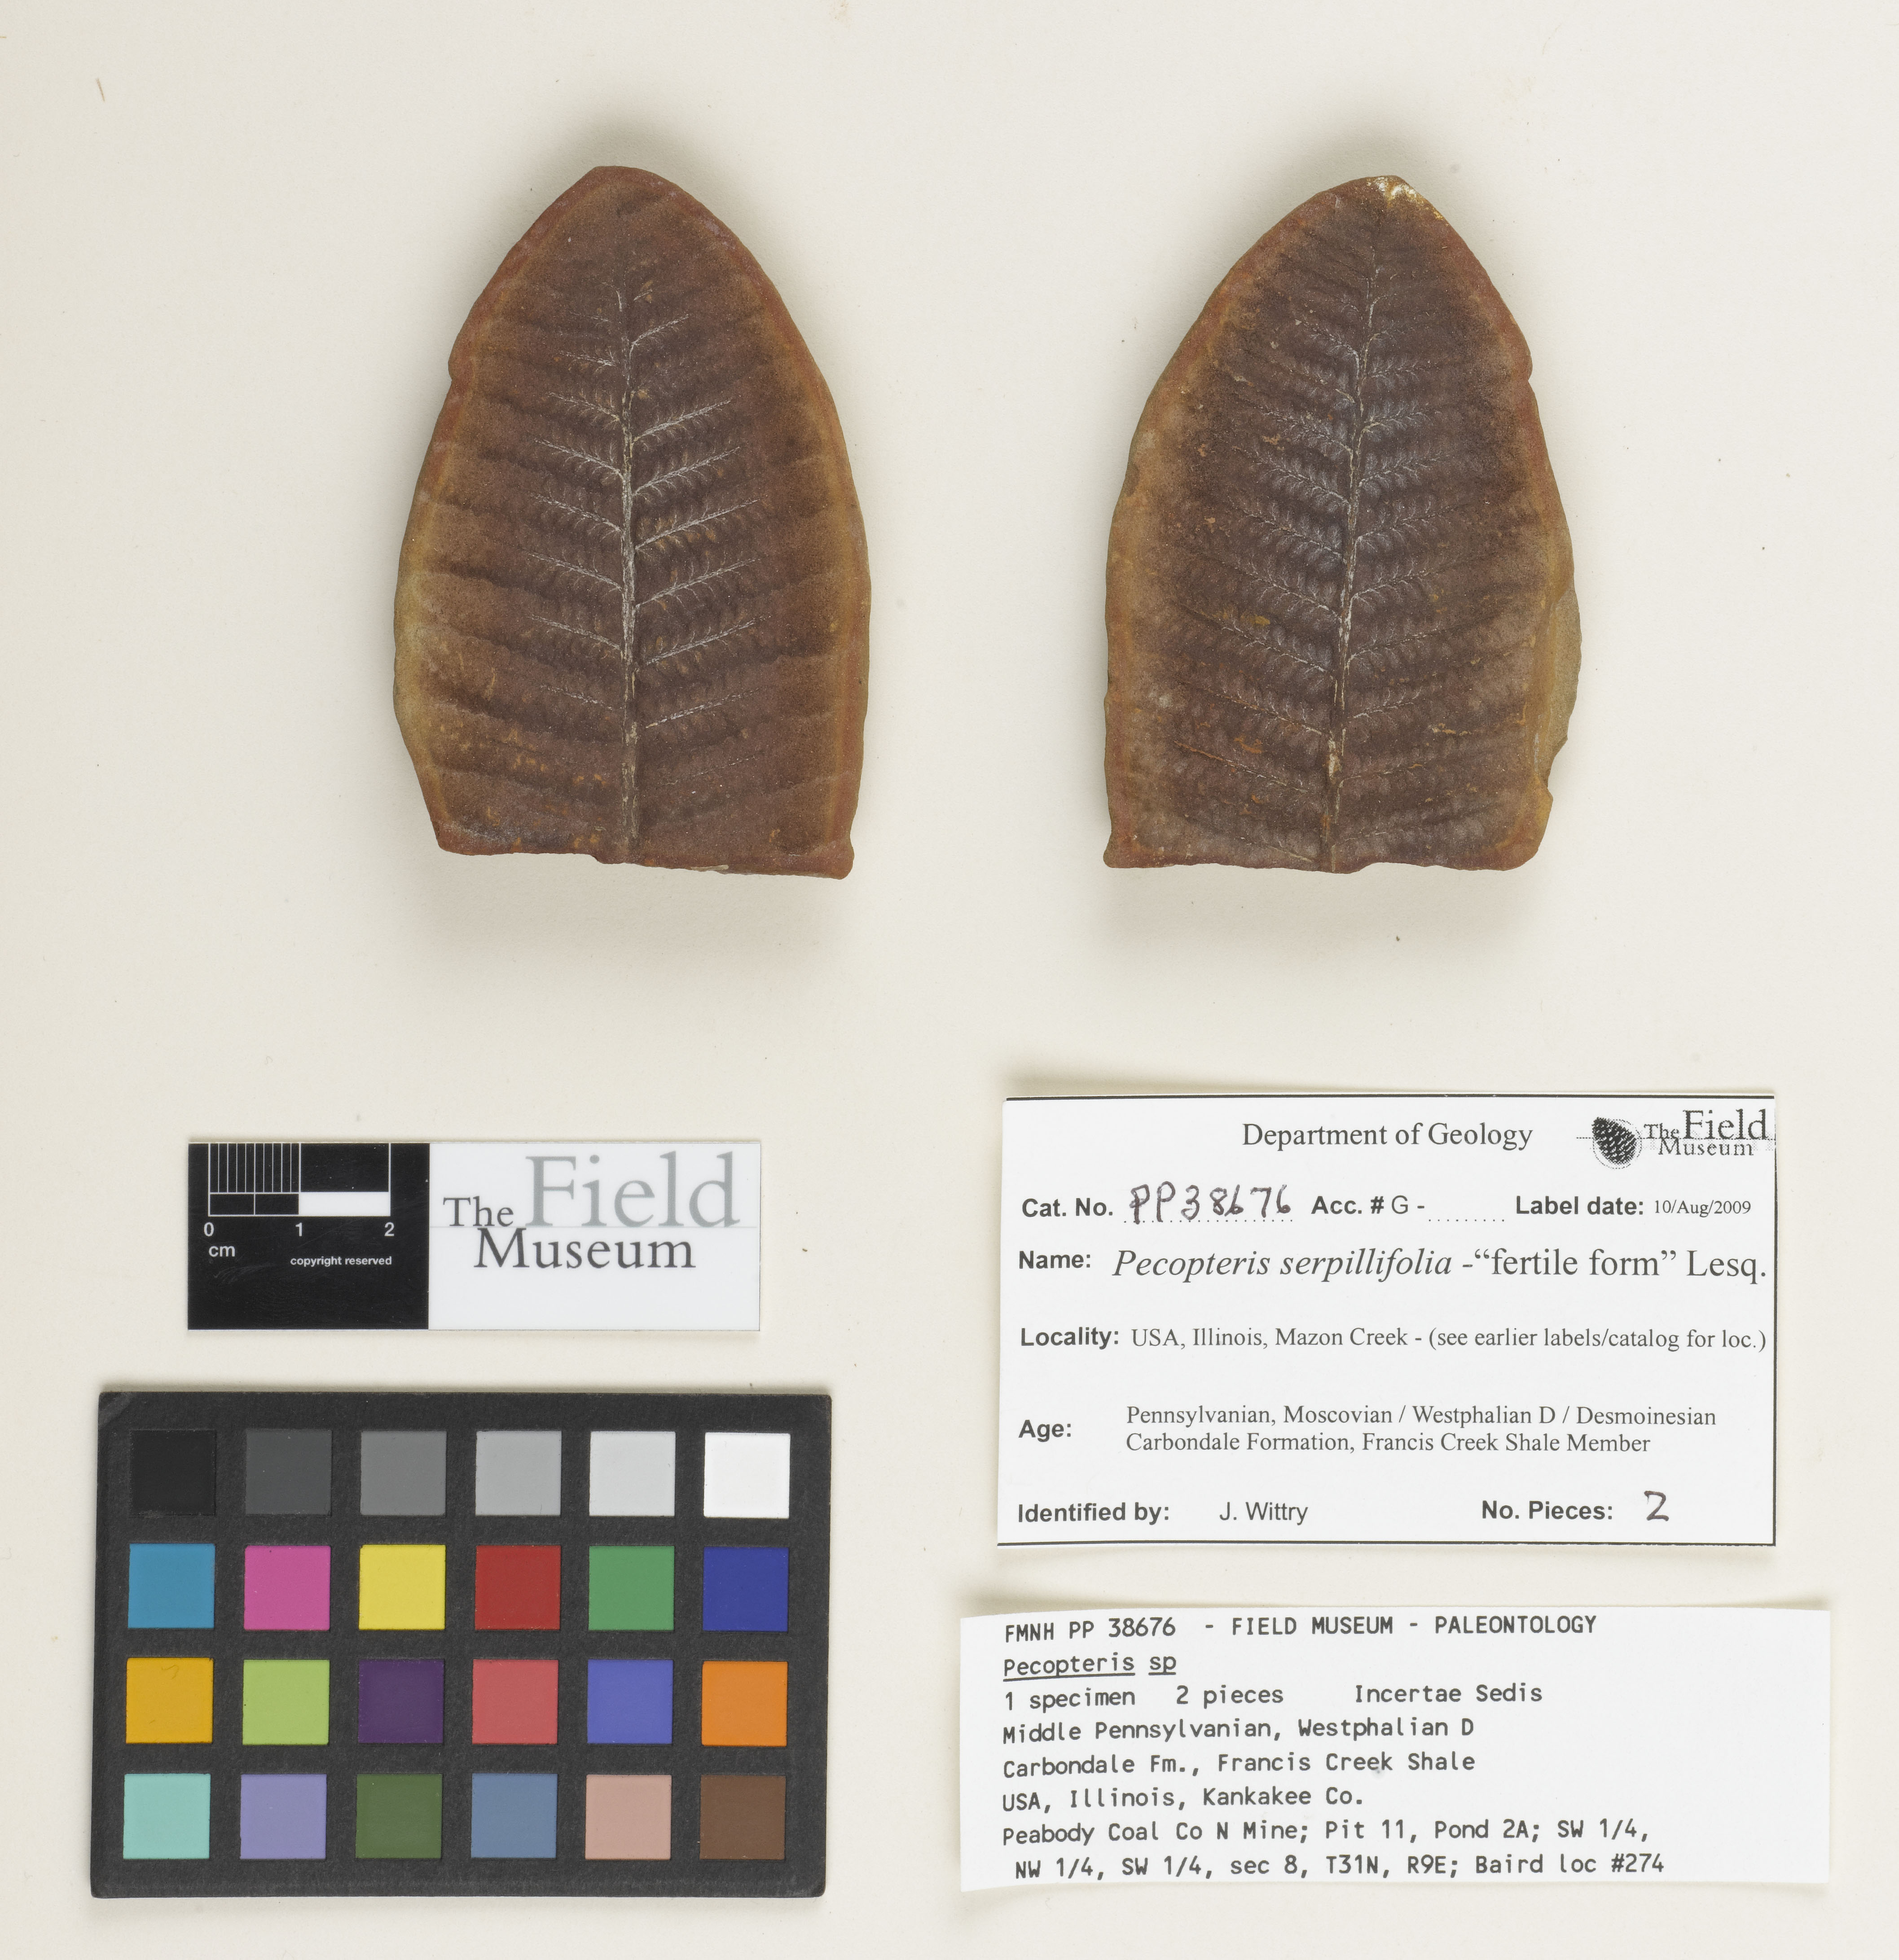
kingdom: Plantae
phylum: Tracheophyta
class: Polypodiopsida
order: Marattiales
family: Asterothecaceae
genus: Pecopteris
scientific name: Pecopteris
